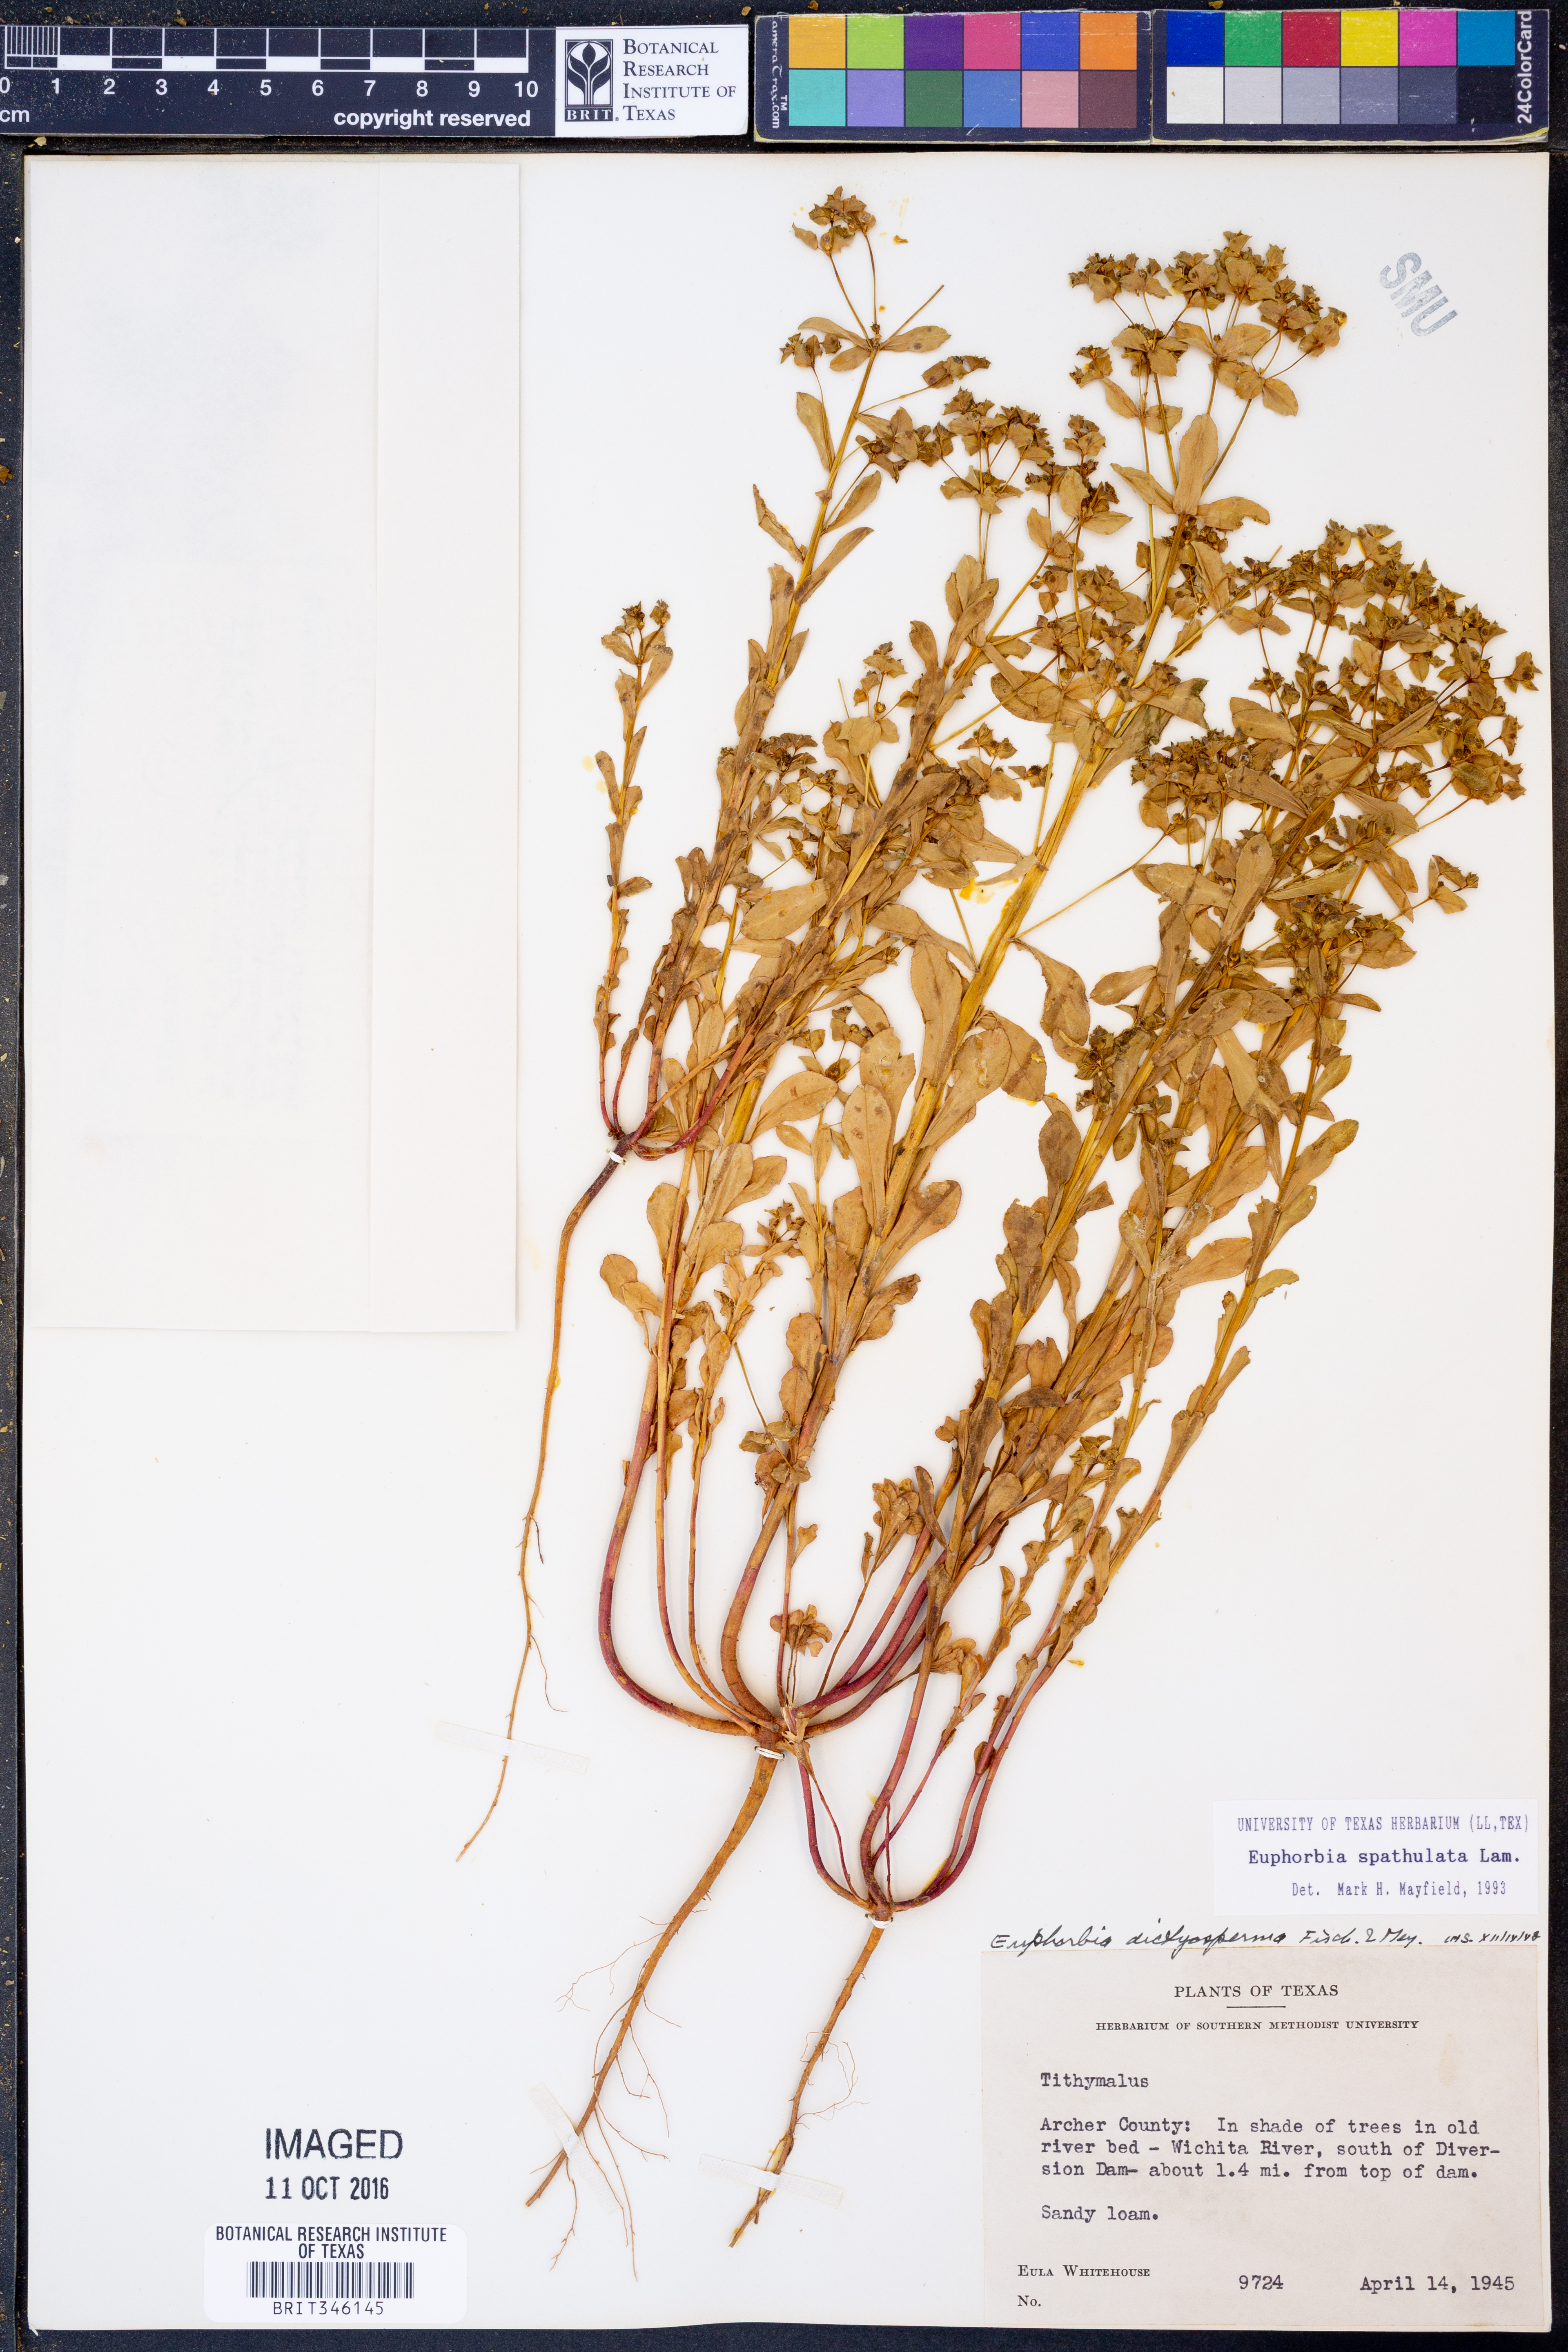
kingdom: Plantae
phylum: Tracheophyta
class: Magnoliopsida
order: Malpighiales
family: Euphorbiaceae
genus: Euphorbia
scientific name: Euphorbia spathulata
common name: Blunt spurge
